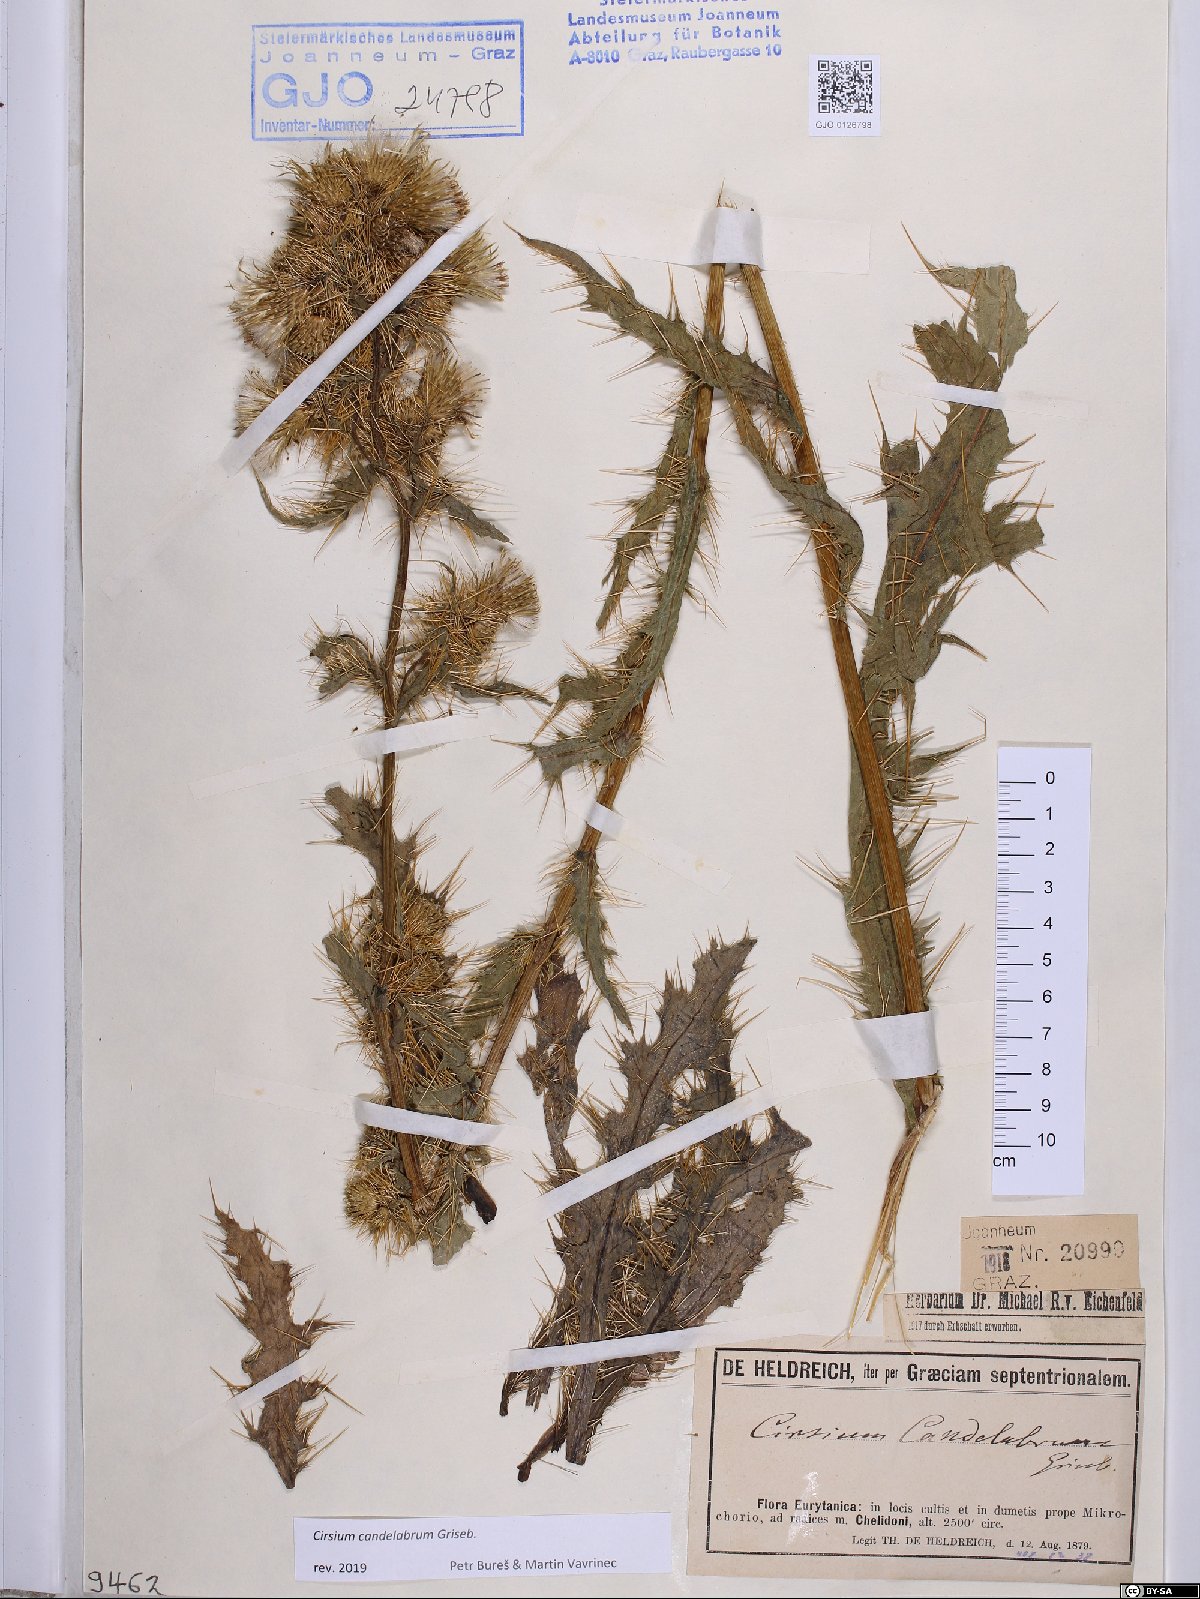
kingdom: Plantae
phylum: Tracheophyta
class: Magnoliopsida
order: Asterales
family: Asteraceae
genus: Cirsium
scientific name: Cirsium candelabrum
